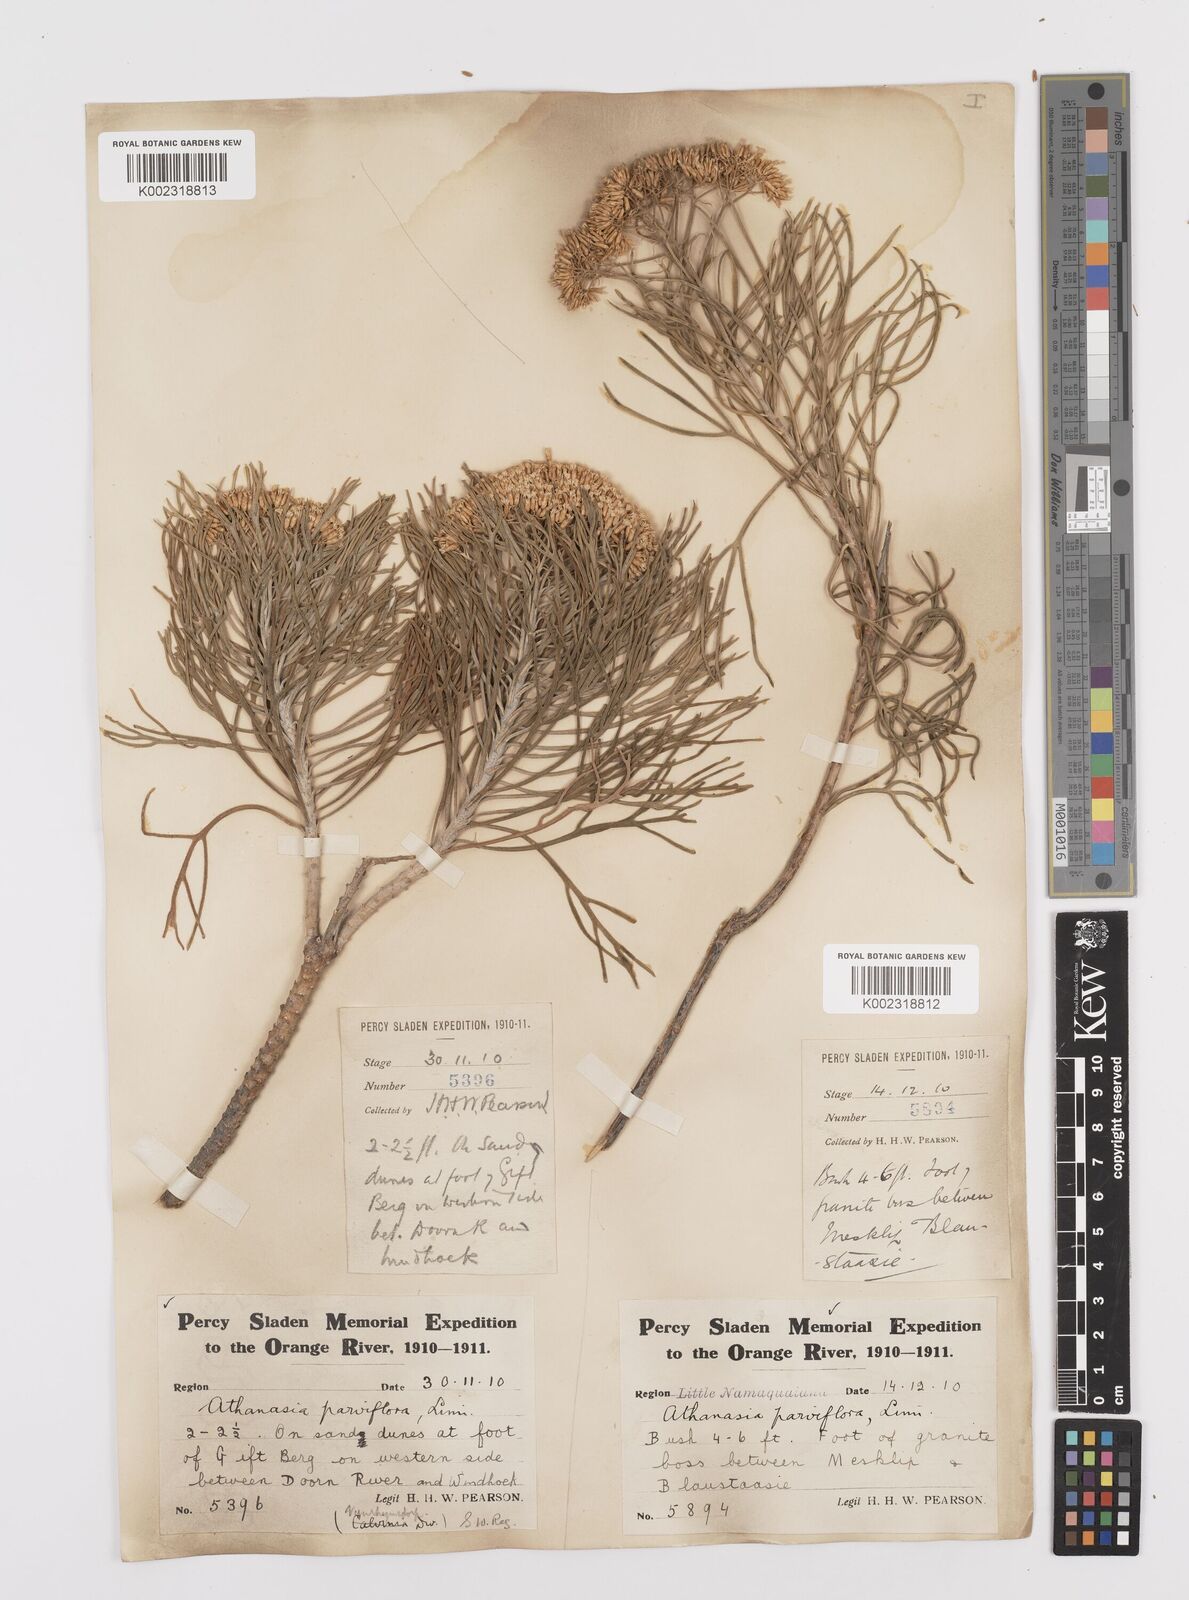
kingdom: Plantae
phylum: Tracheophyta
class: Magnoliopsida
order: Asterales
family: Asteraceae
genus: Hymenolepis
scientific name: Hymenolepis crithmifolia
